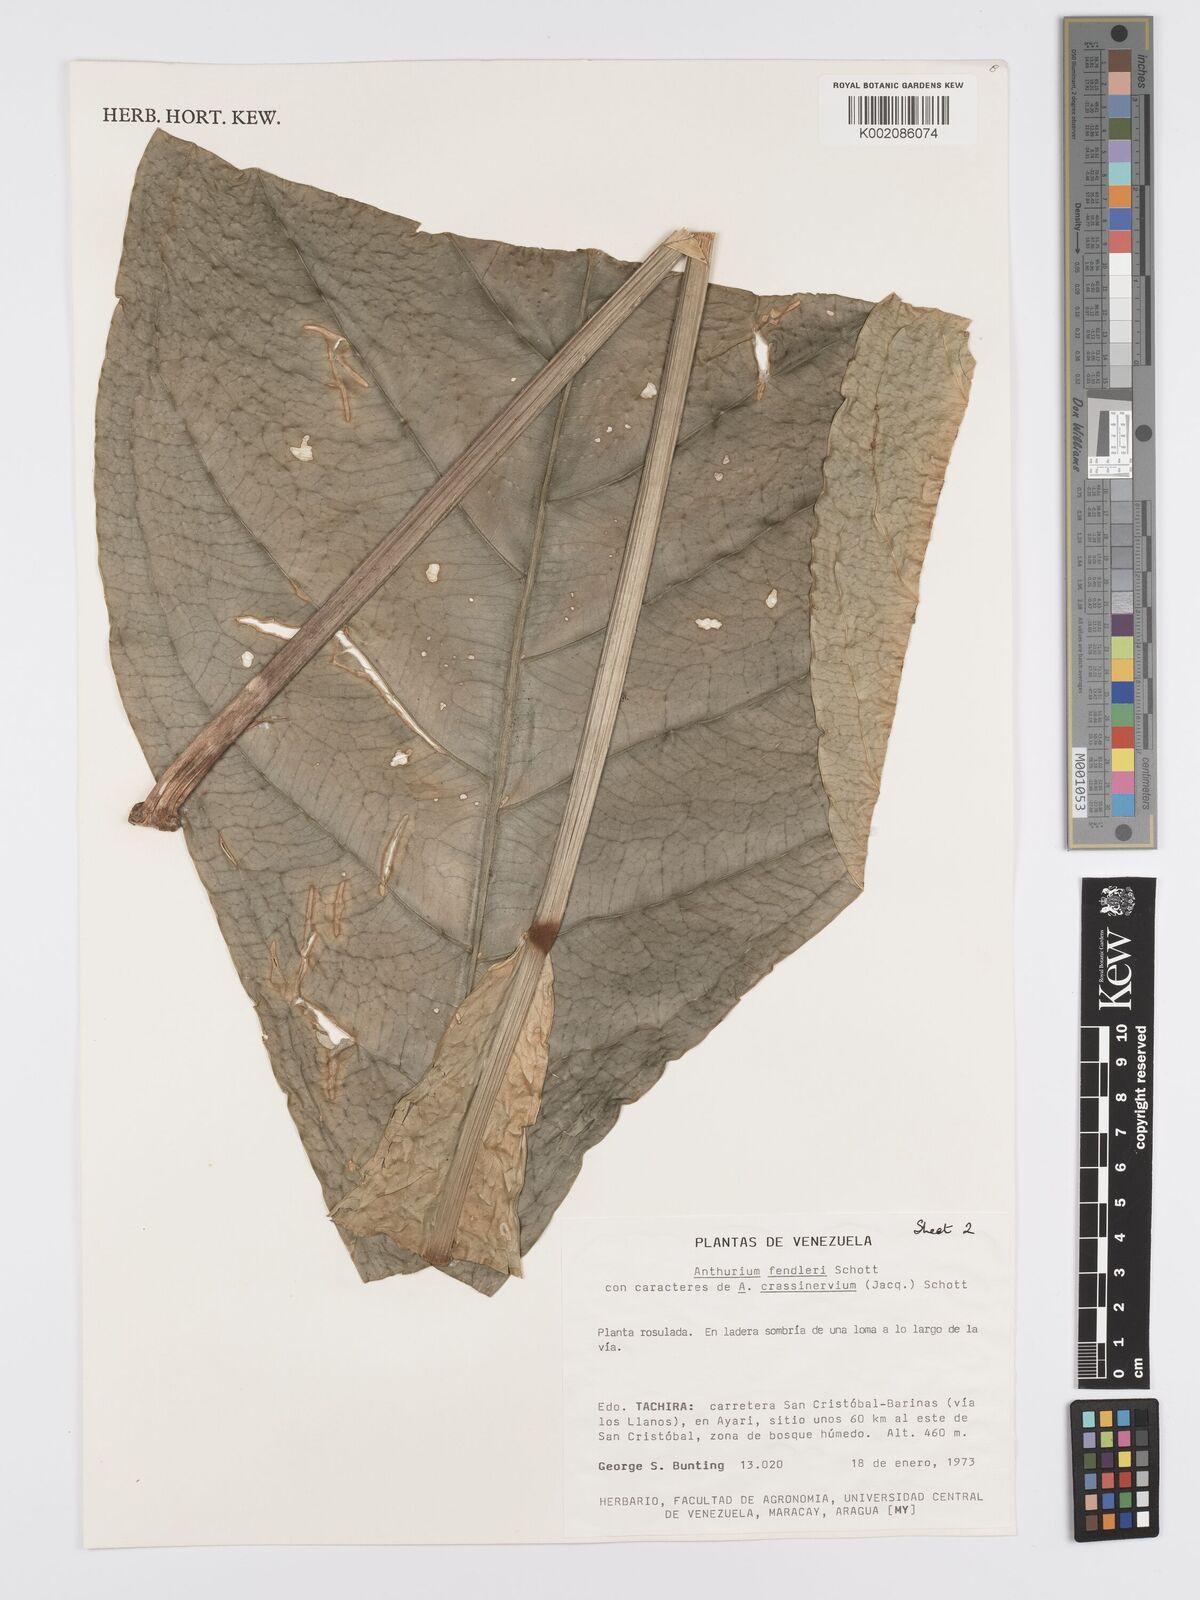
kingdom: Plantae
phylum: Tracheophyta
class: Liliopsida
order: Alismatales
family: Araceae
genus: Anthurium
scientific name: Anthurium fendleri
